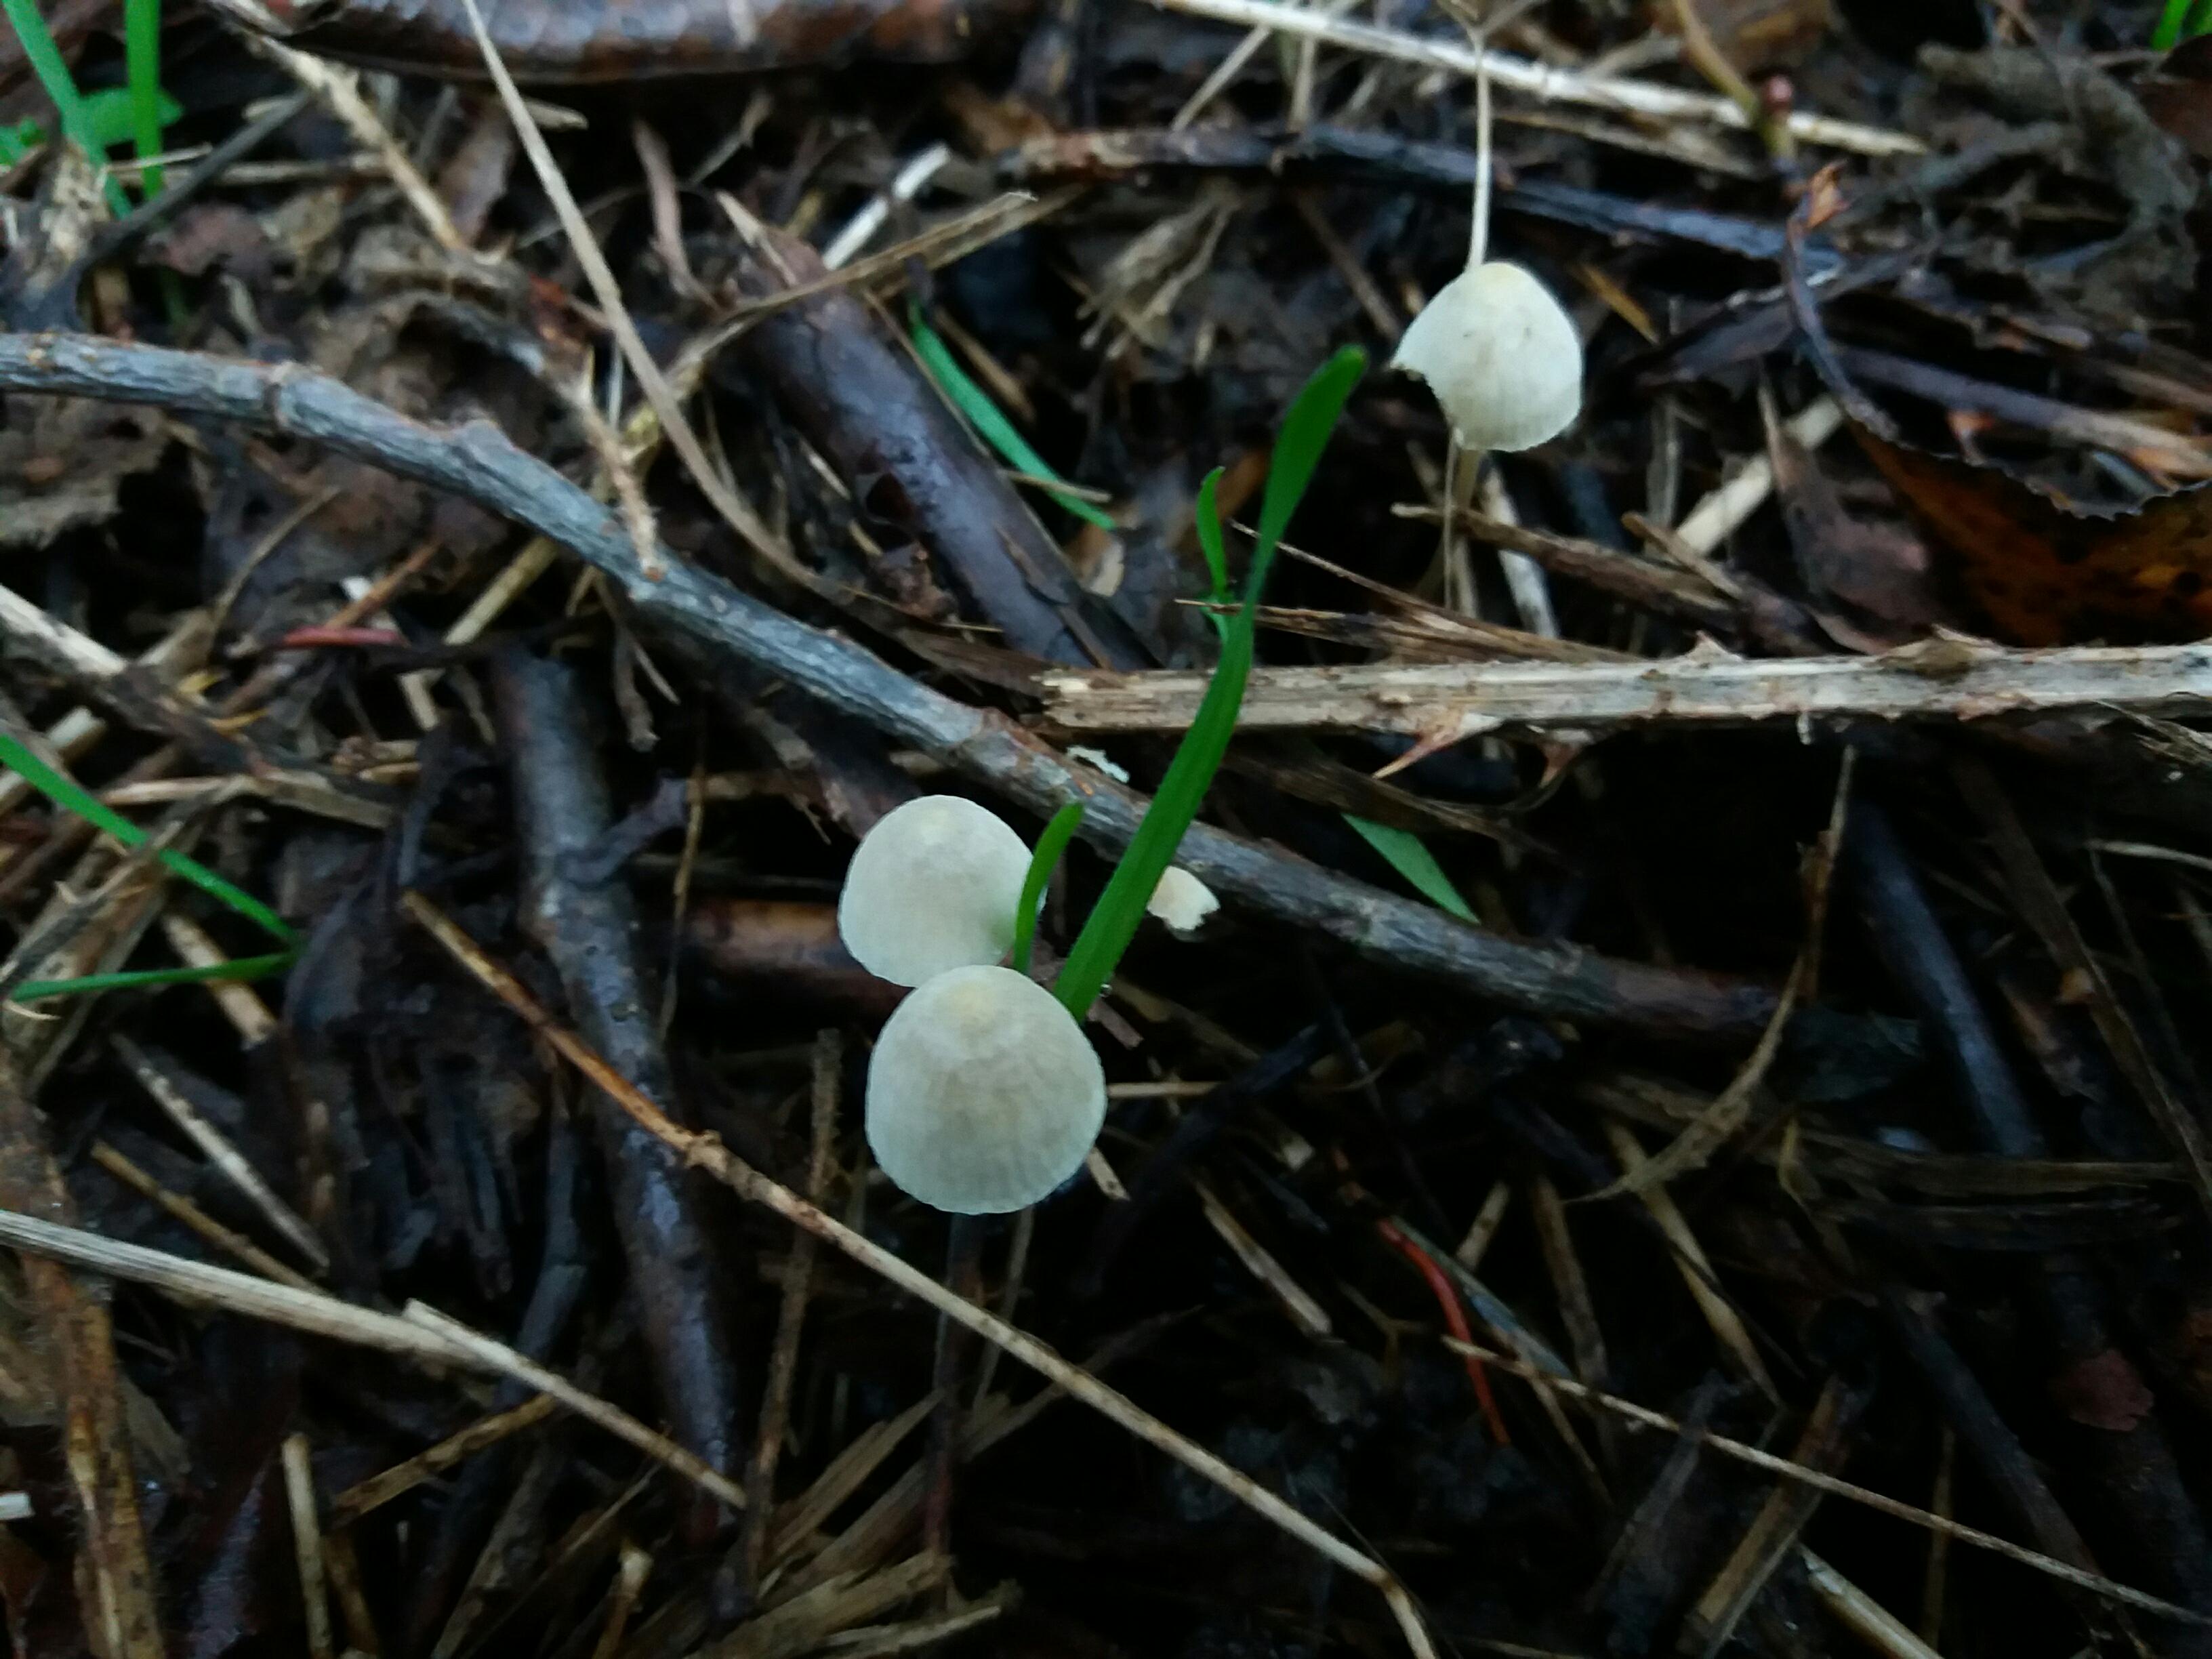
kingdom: Fungi
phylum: Basidiomycota
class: Agaricomycetes
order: Agaricales
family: Mycenaceae
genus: Mycena
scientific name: Mycena
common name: huesvamp
